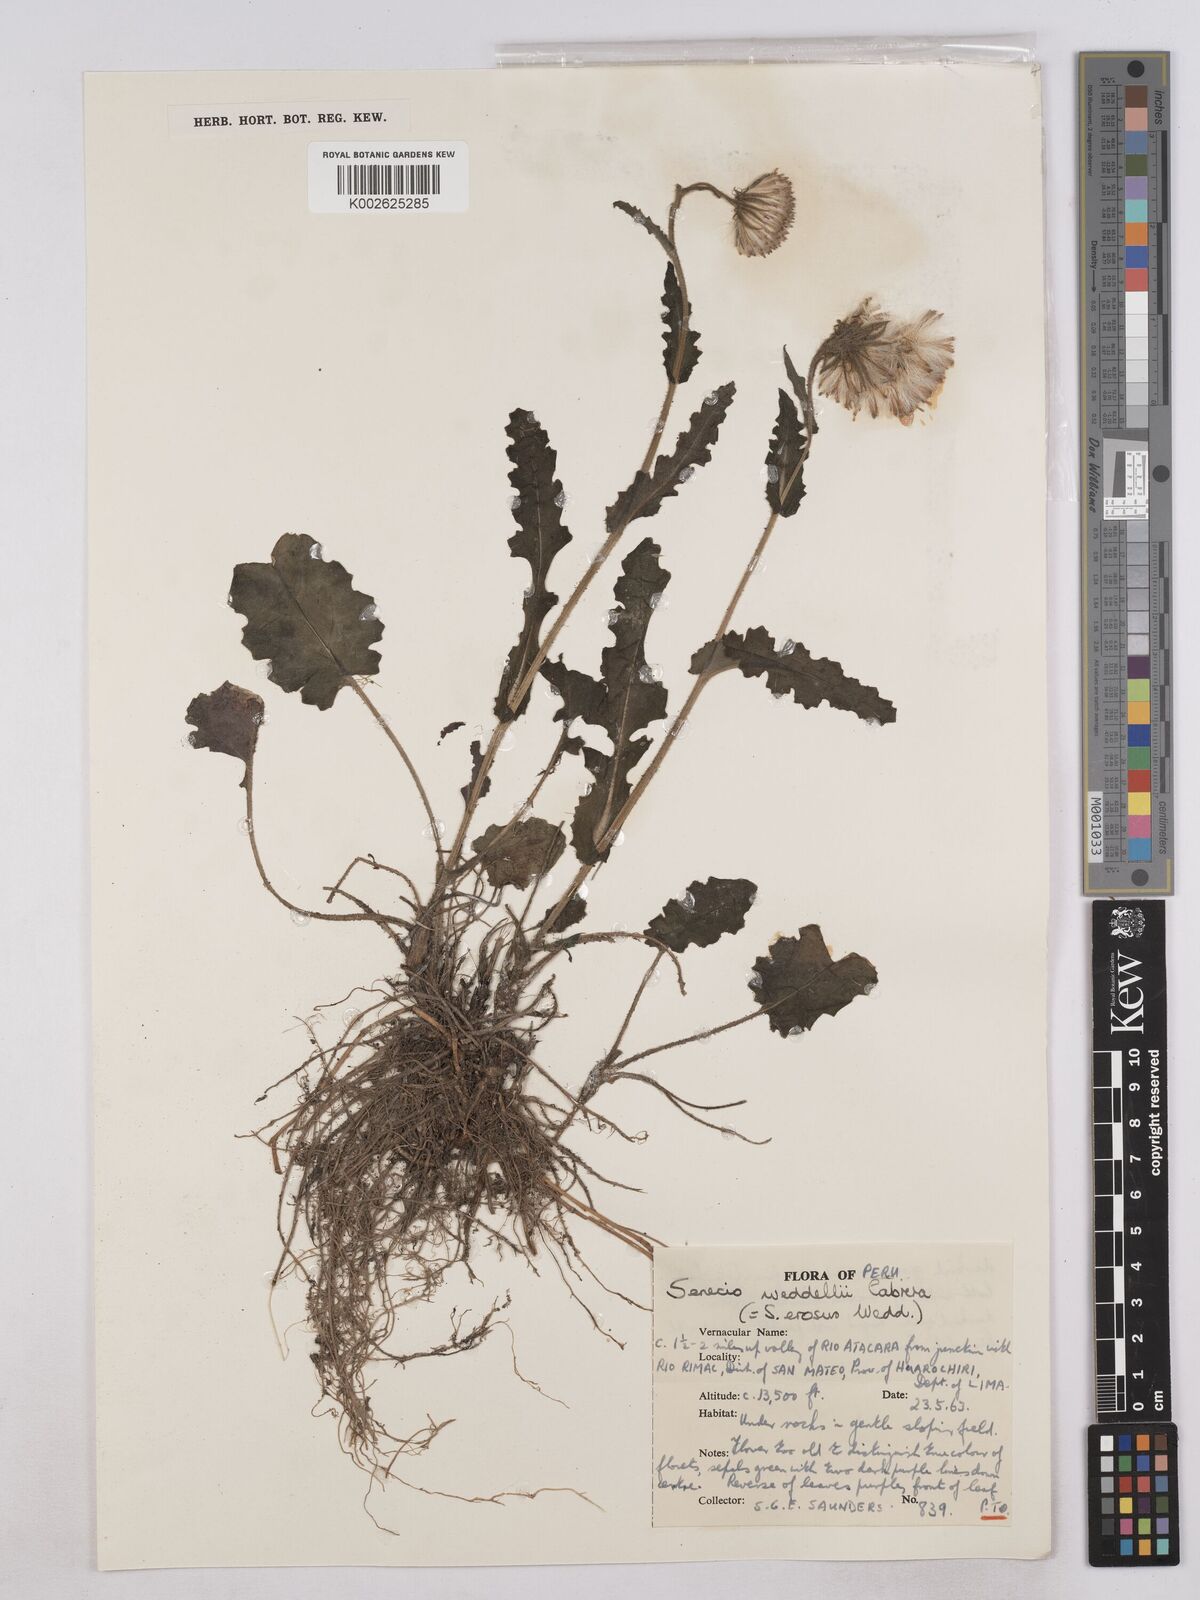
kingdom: Plantae
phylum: Tracheophyta
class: Magnoliopsida
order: Asterales
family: Asteraceae
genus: Senecio
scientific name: Senecio rhizomatus
